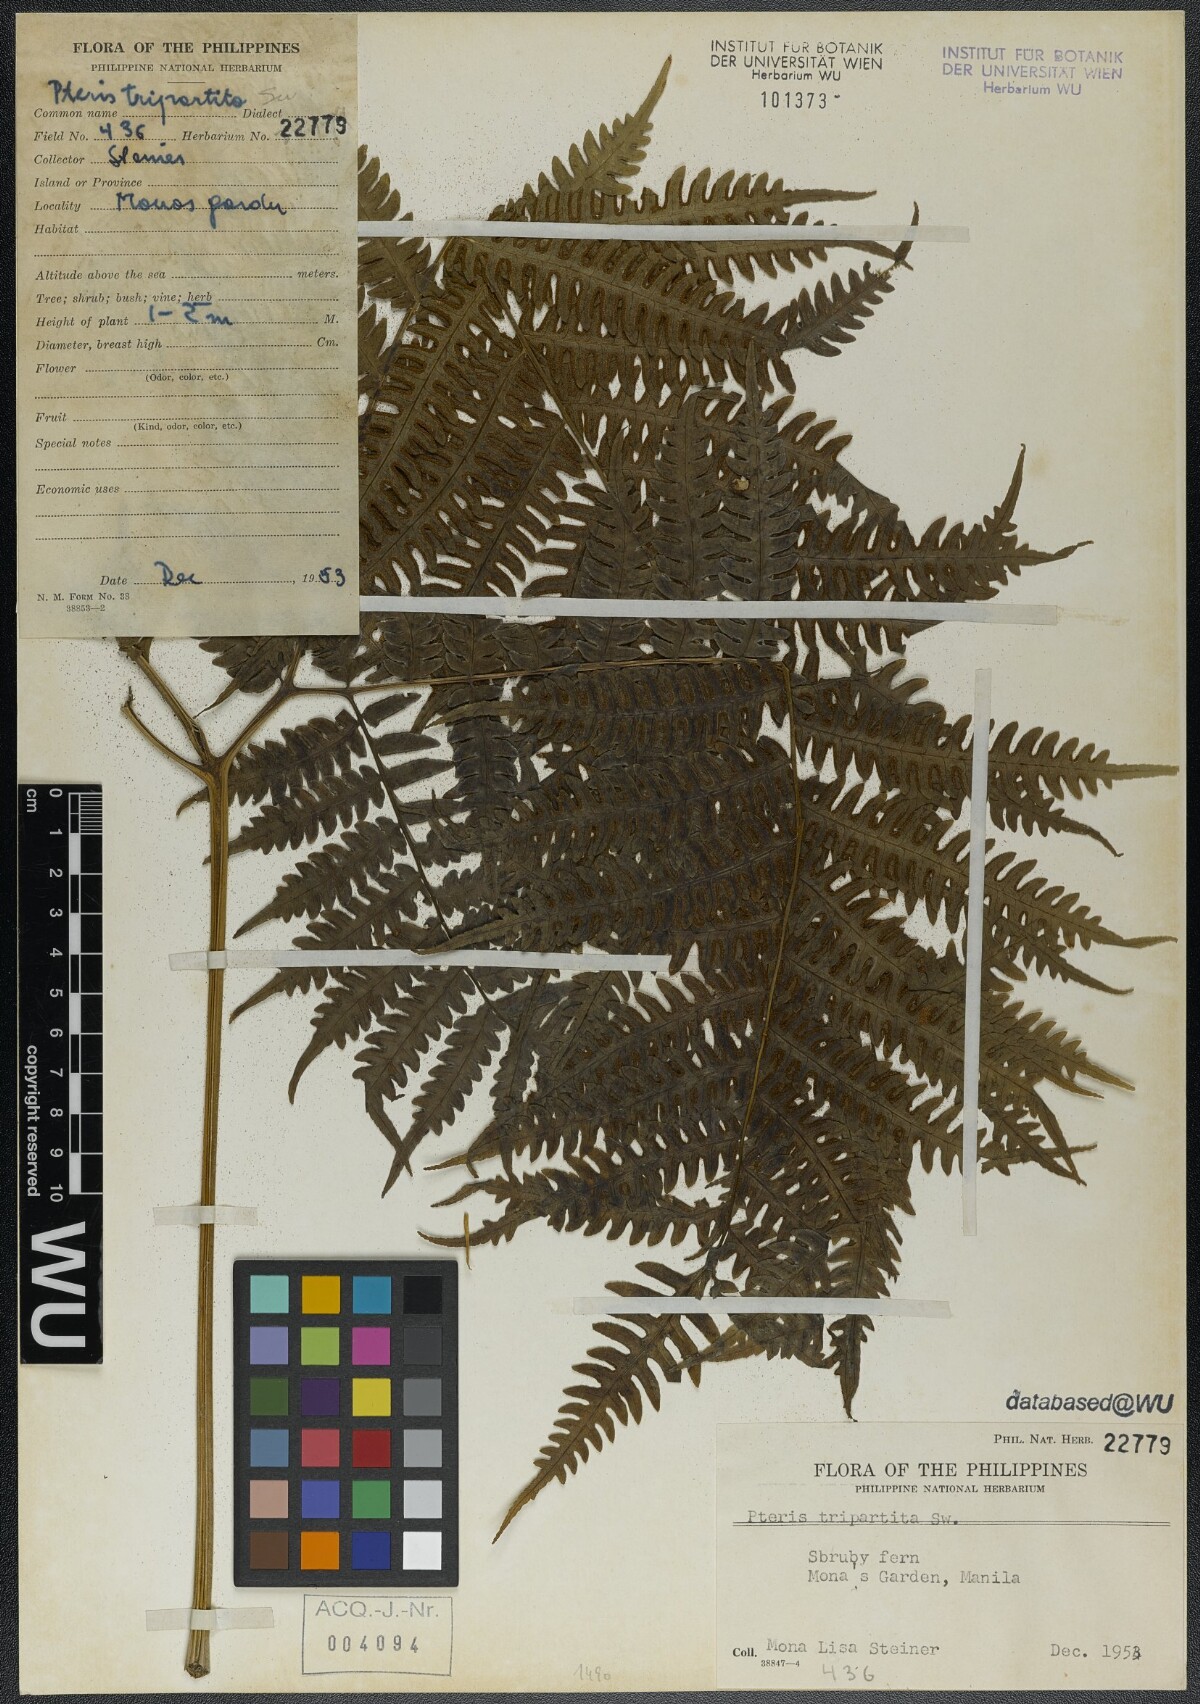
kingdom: Plantae
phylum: Tracheophyta
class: Polypodiopsida
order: Polypodiales
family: Pteridaceae
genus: Pteris
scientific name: Pteris tripartita
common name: Giant brake
